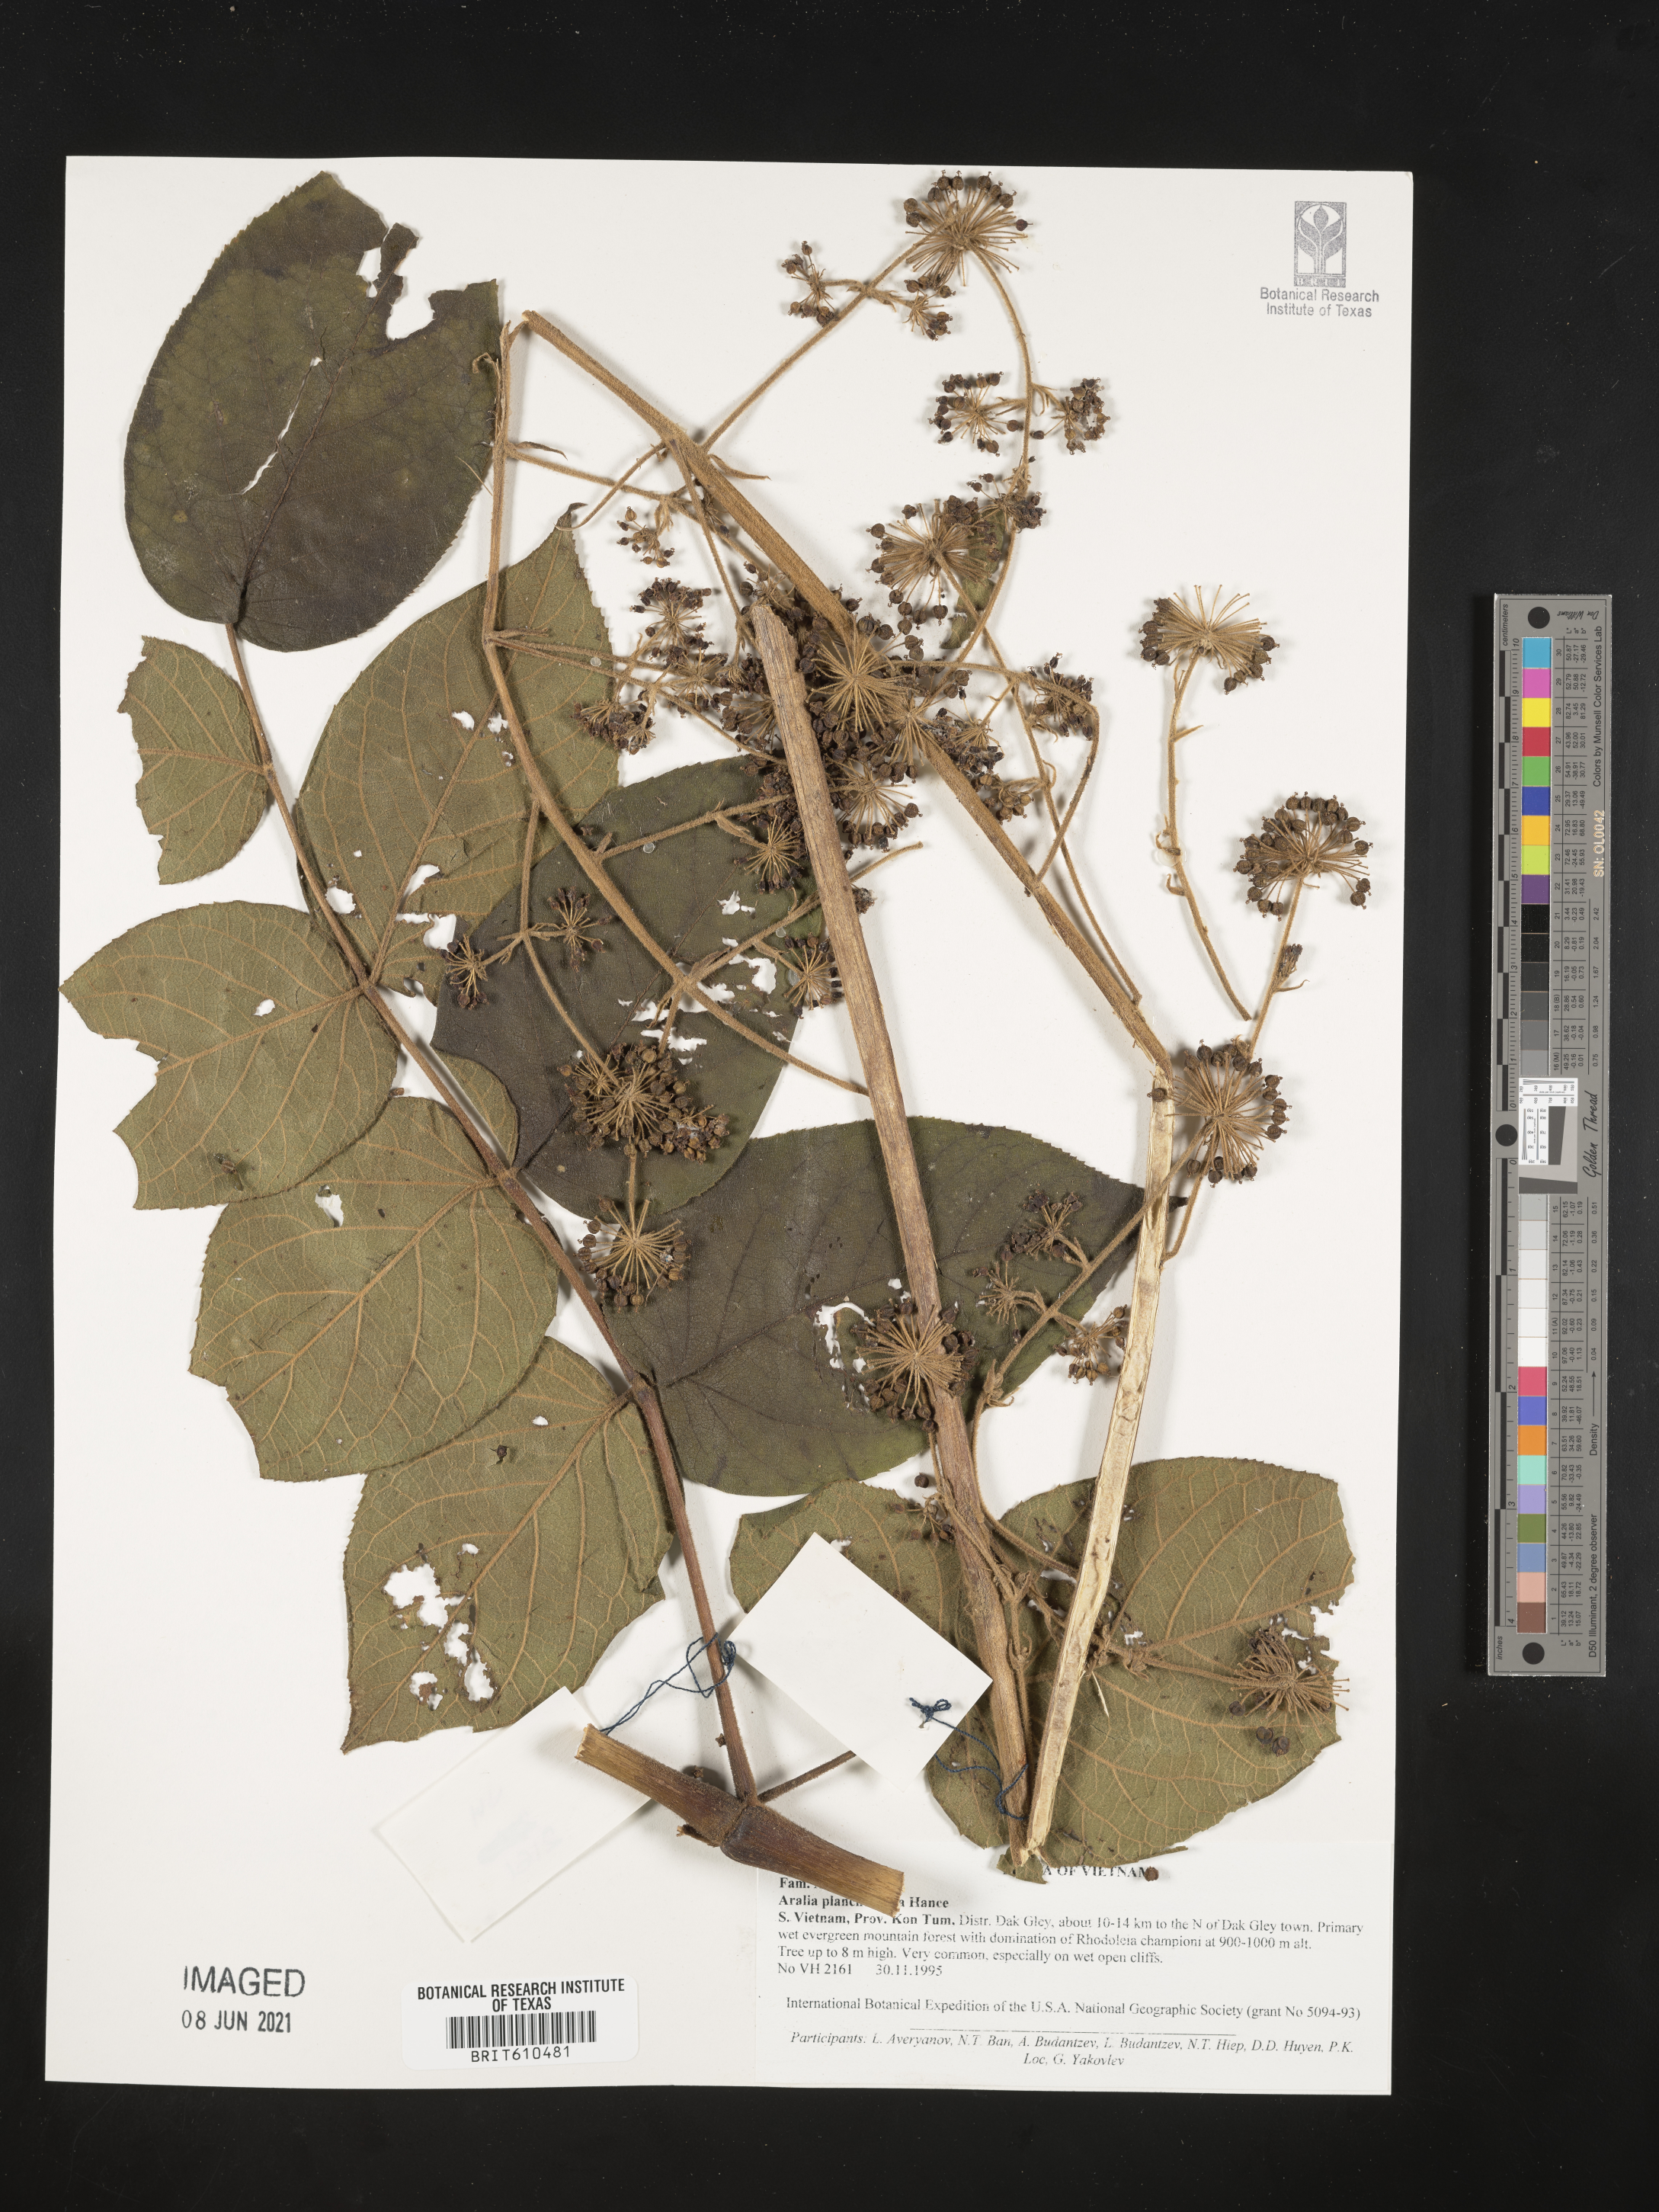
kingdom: Plantae
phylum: Tracheophyta
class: Magnoliopsida
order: Apiales
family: Araliaceae
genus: Aralia
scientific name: Aralia chinensis
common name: Chinese angelica-tree
